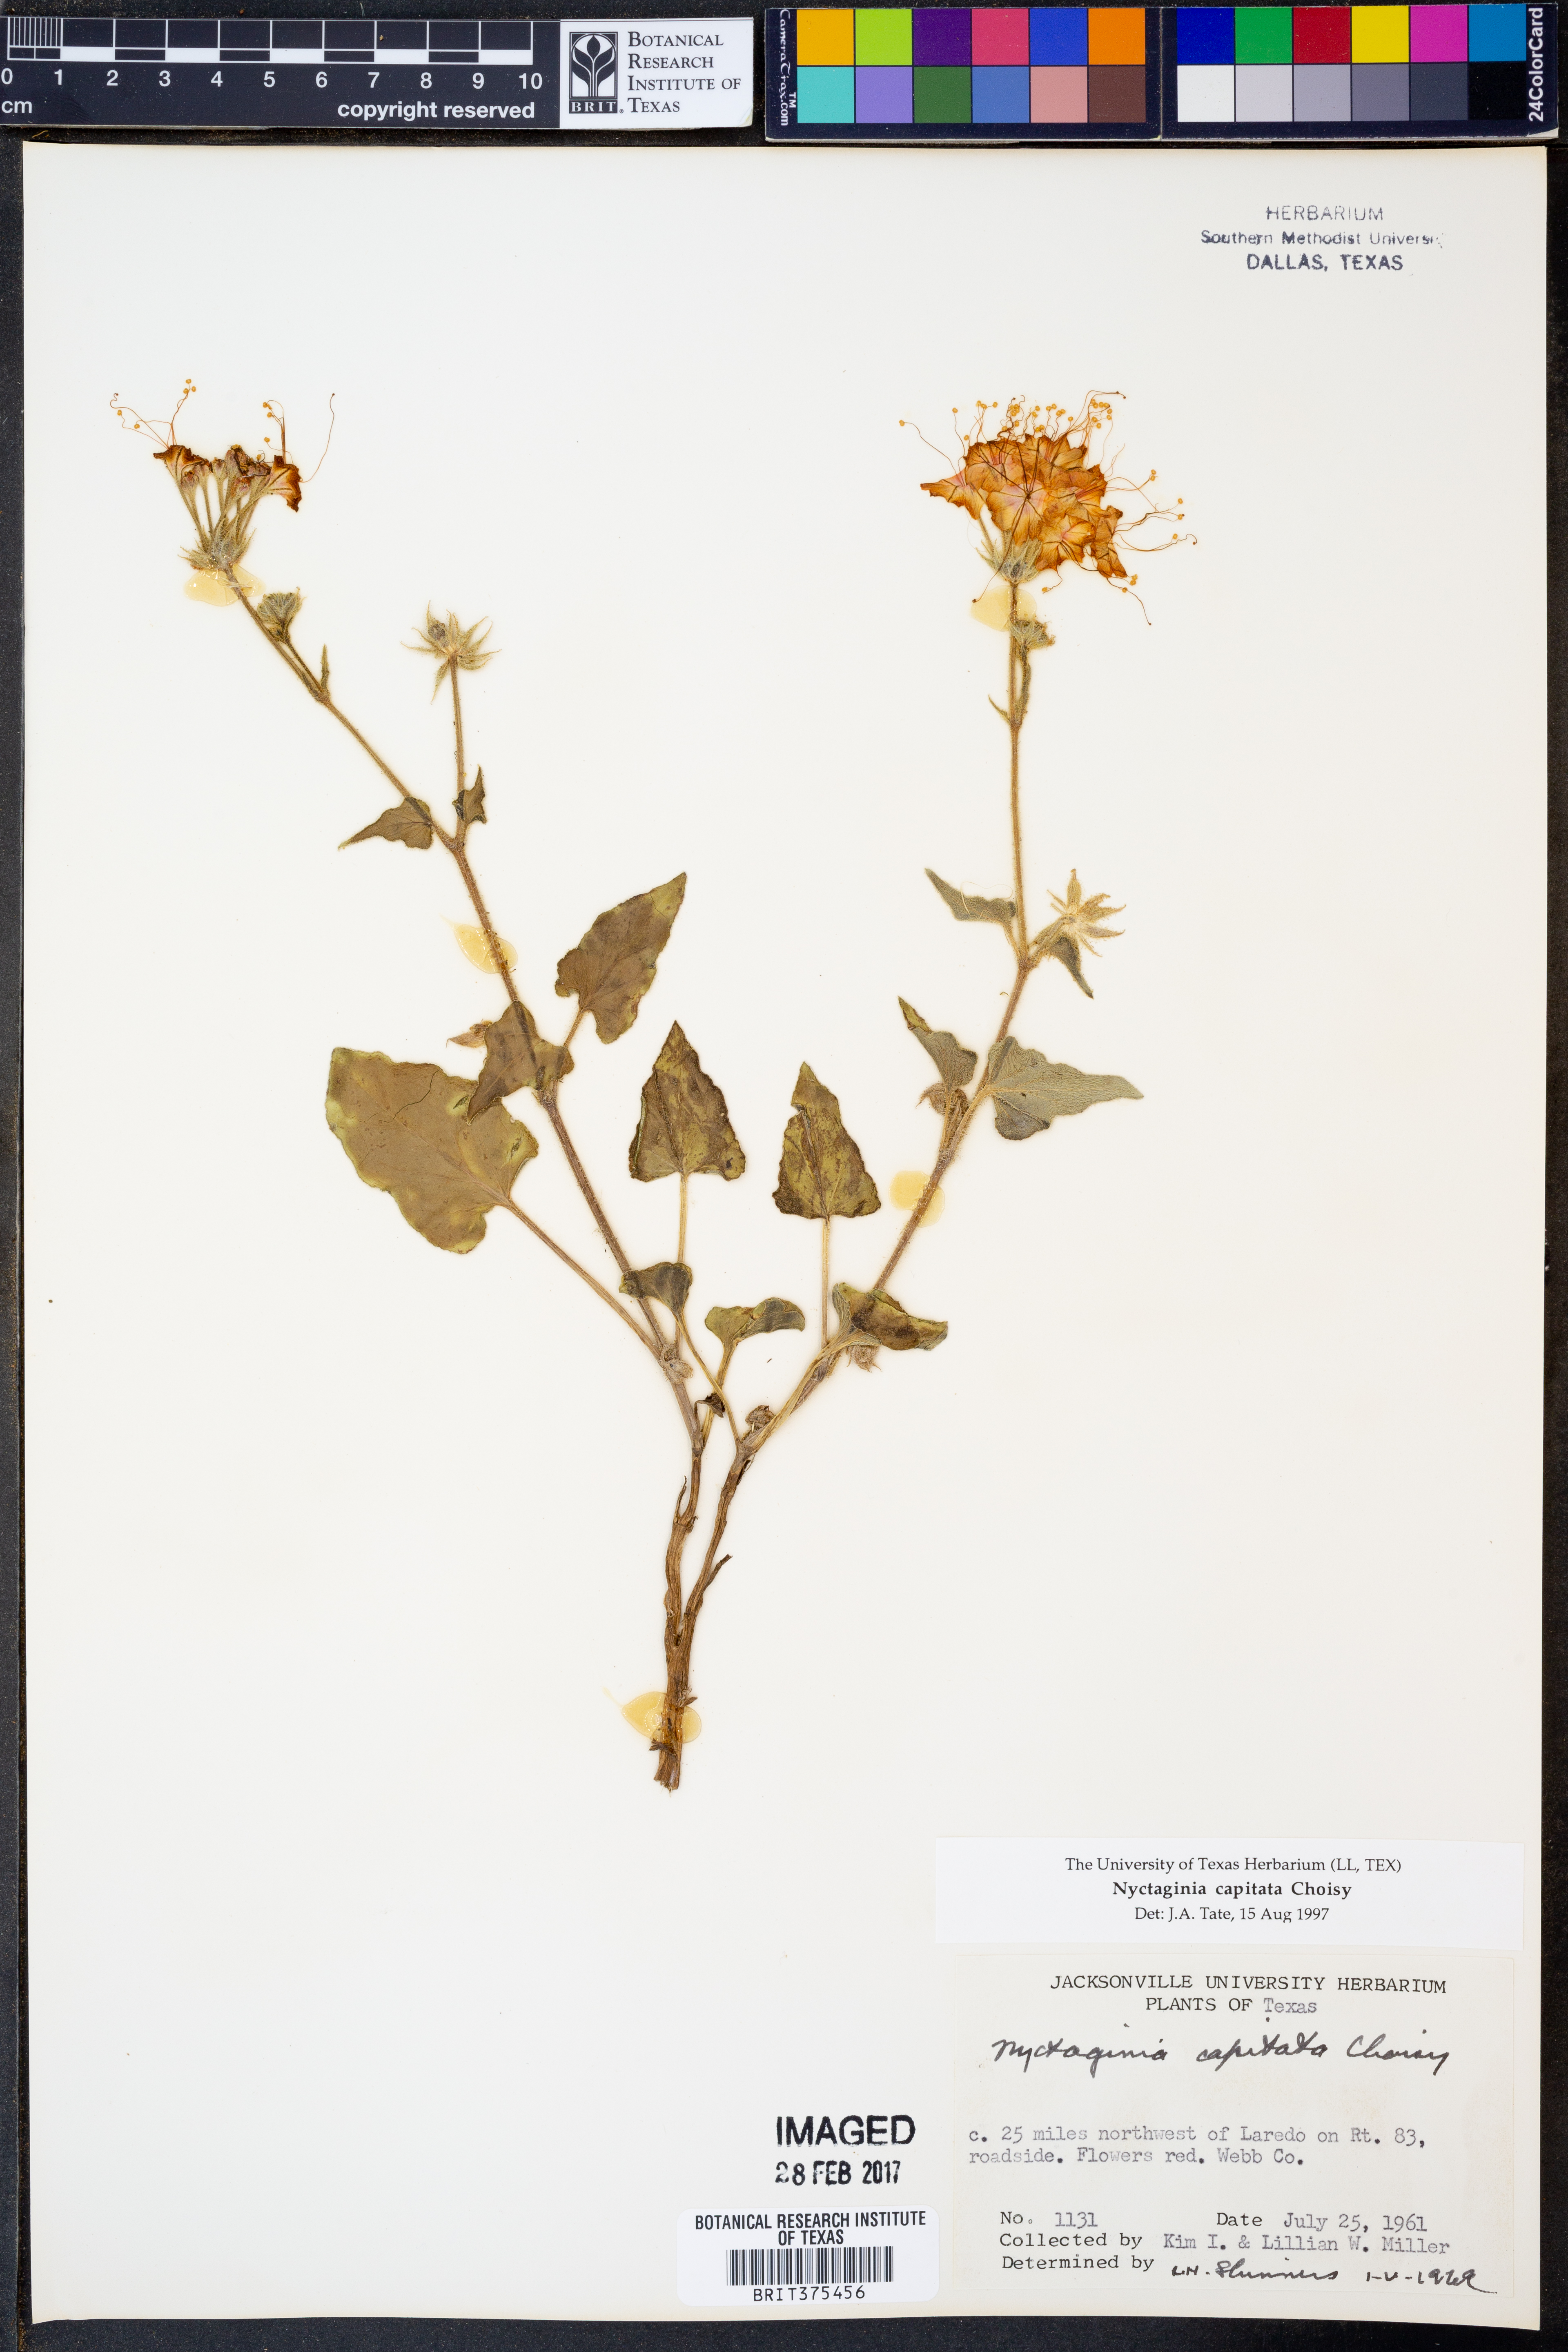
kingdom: Plantae
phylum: Tracheophyta
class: Magnoliopsida
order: Caryophyllales
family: Nyctaginaceae
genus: Nyctaginia
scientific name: Nyctaginia capitata
